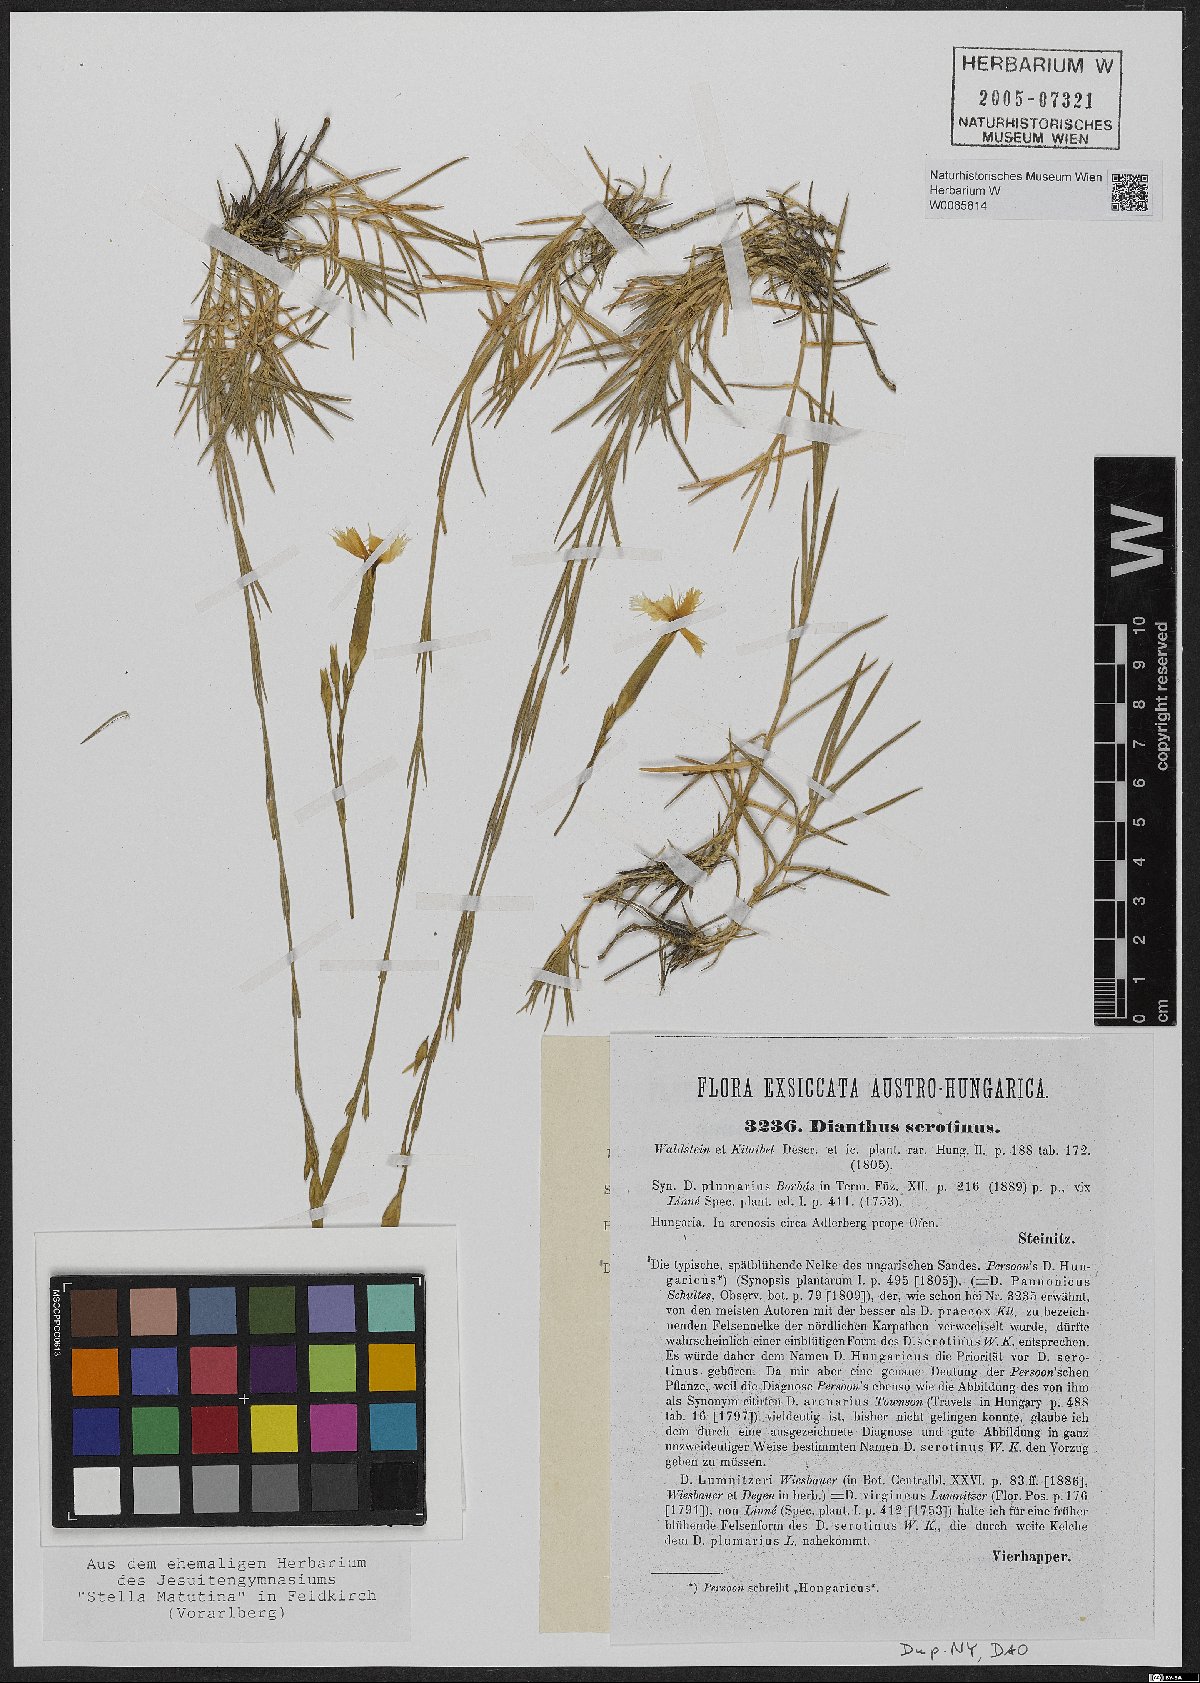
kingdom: Plantae
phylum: Tracheophyta
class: Magnoliopsida
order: Caryophyllales
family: Caryophyllaceae
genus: Dianthus
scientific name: Dianthus serotinus
